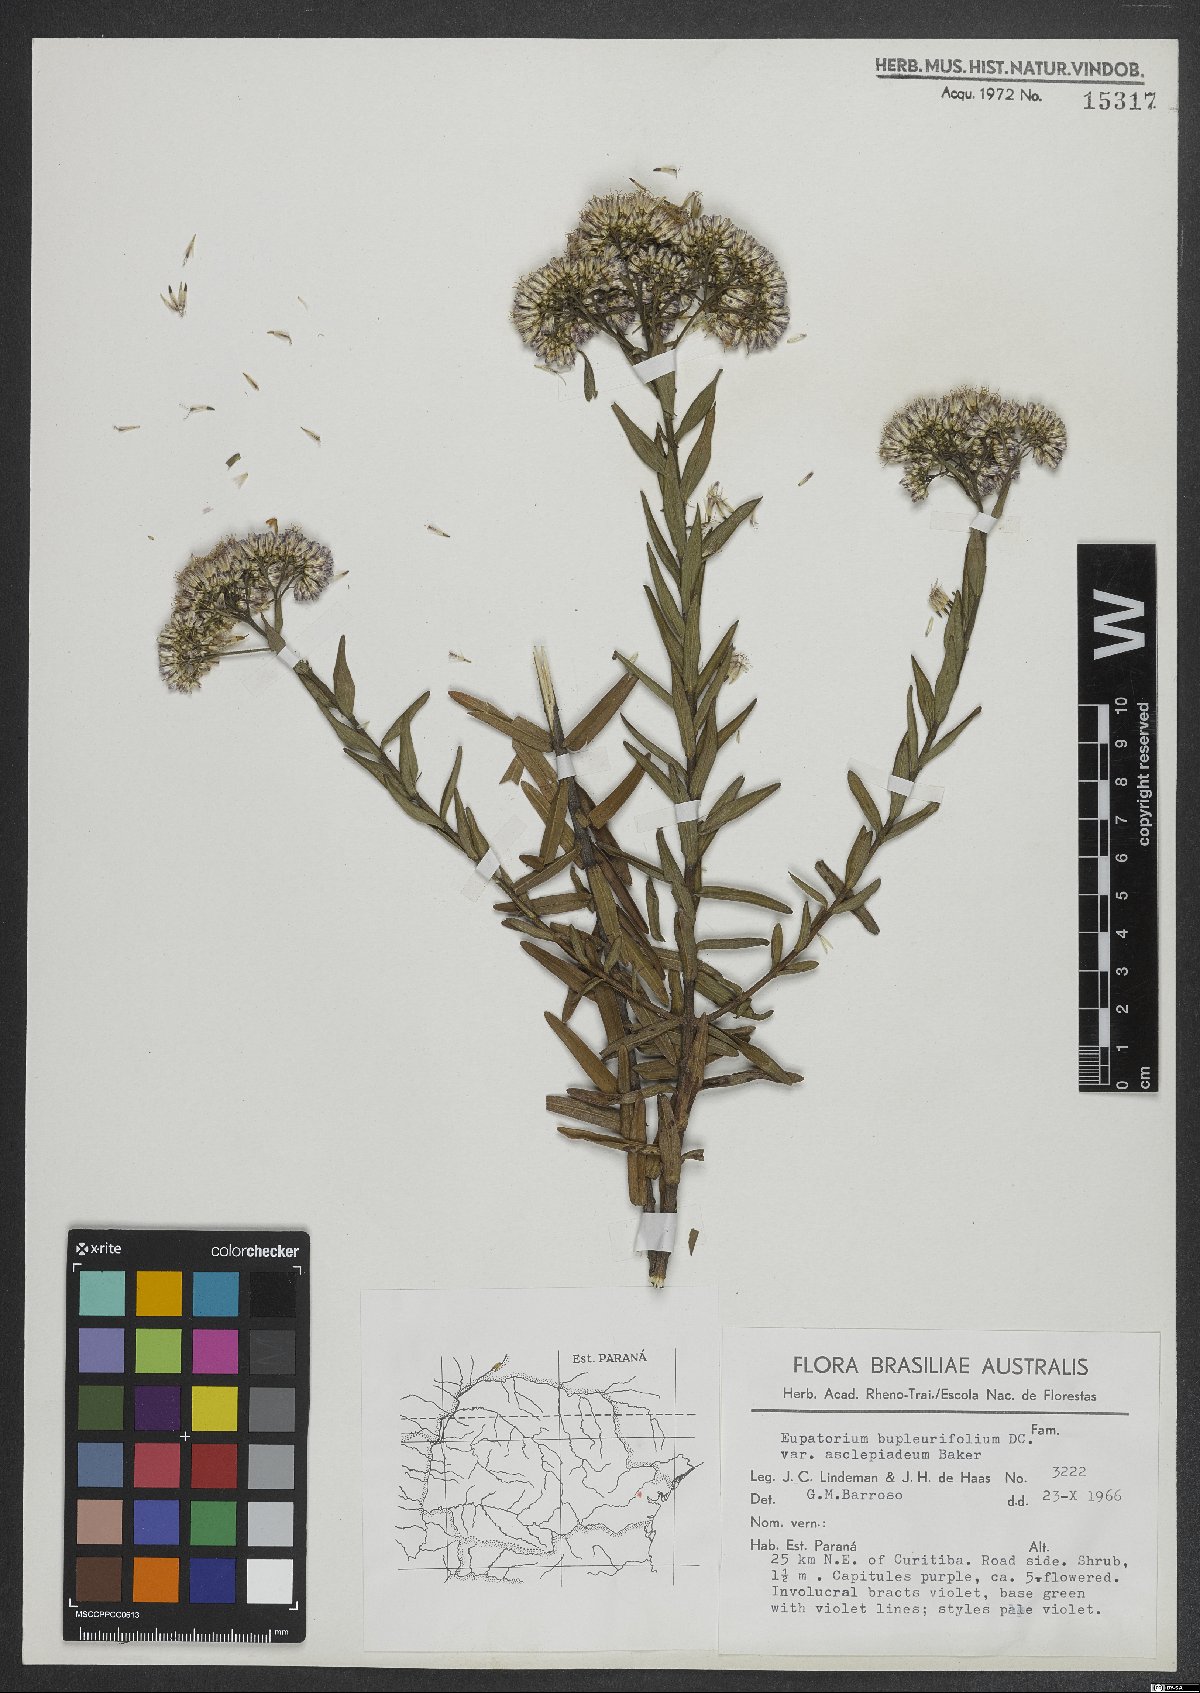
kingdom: Plantae
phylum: Tracheophyta
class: Magnoliopsida
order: Asterales
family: Asteraceae
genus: Campovassouria
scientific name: Campovassouria cruciata
